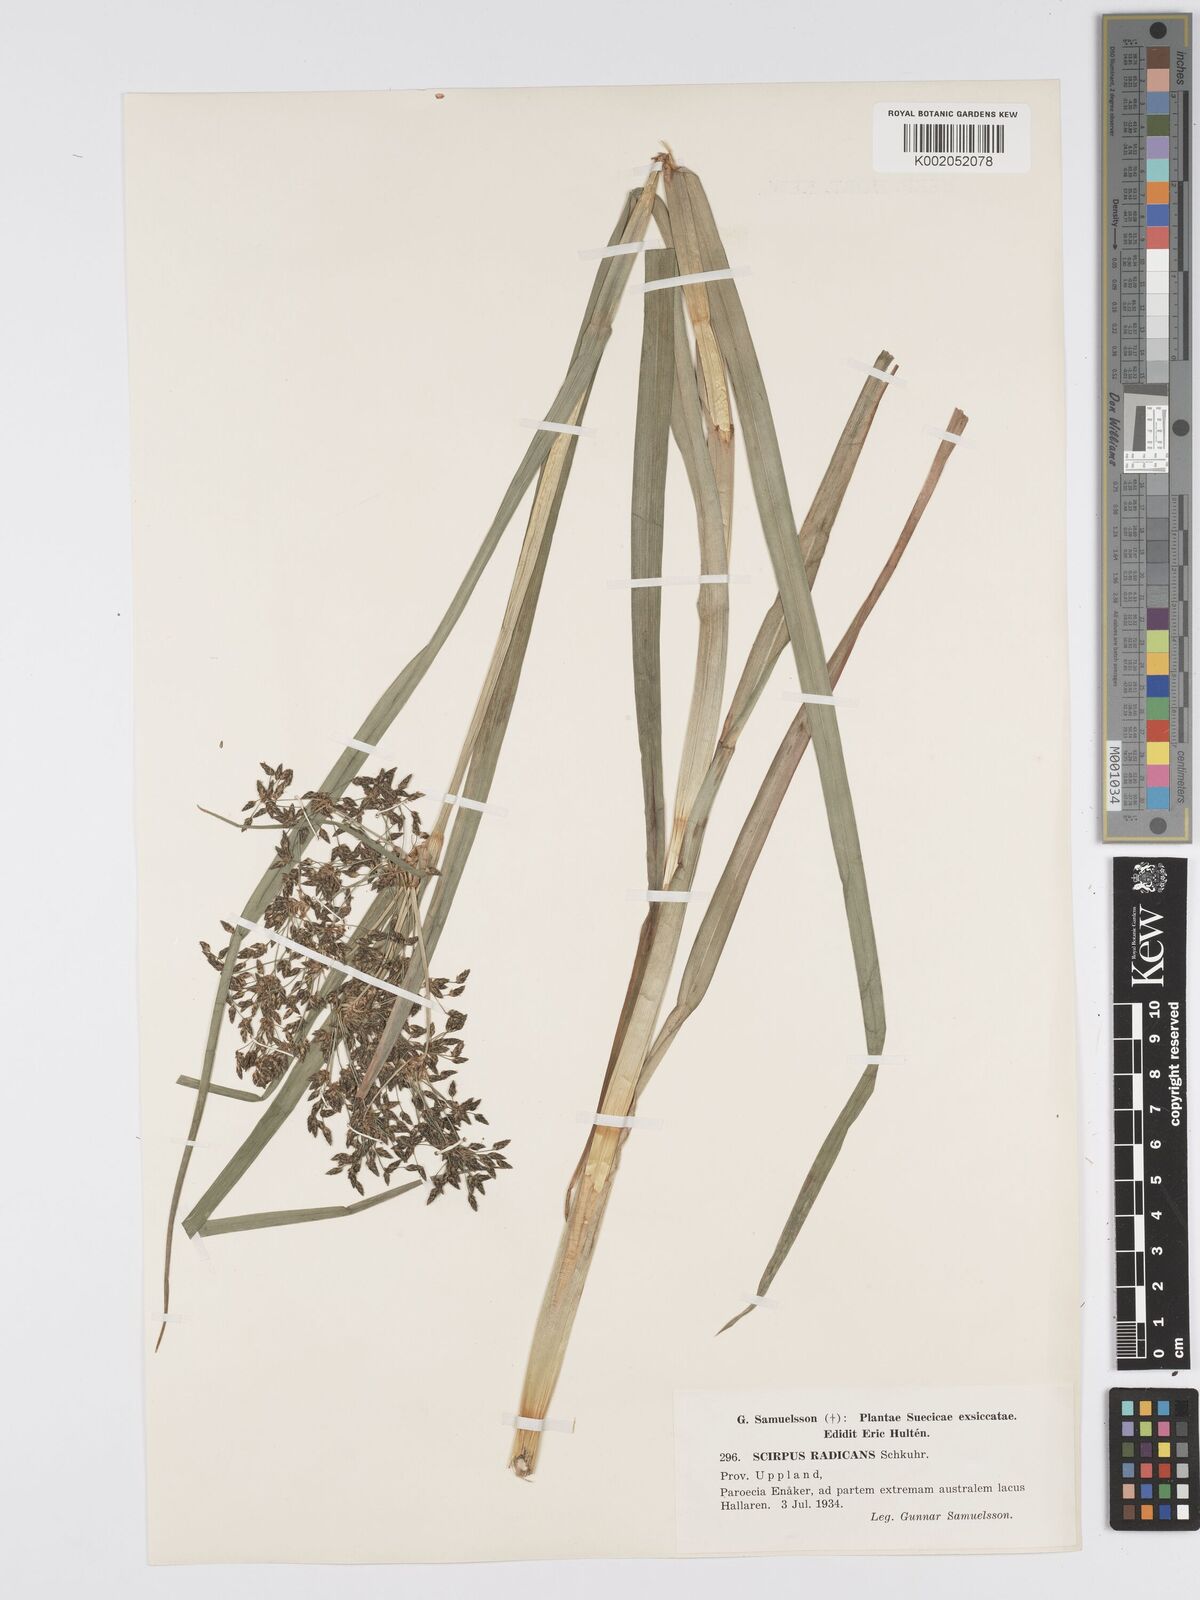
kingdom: Plantae
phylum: Tracheophyta
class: Liliopsida
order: Poales
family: Cyperaceae
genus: Scirpus
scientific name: Scirpus radicans
